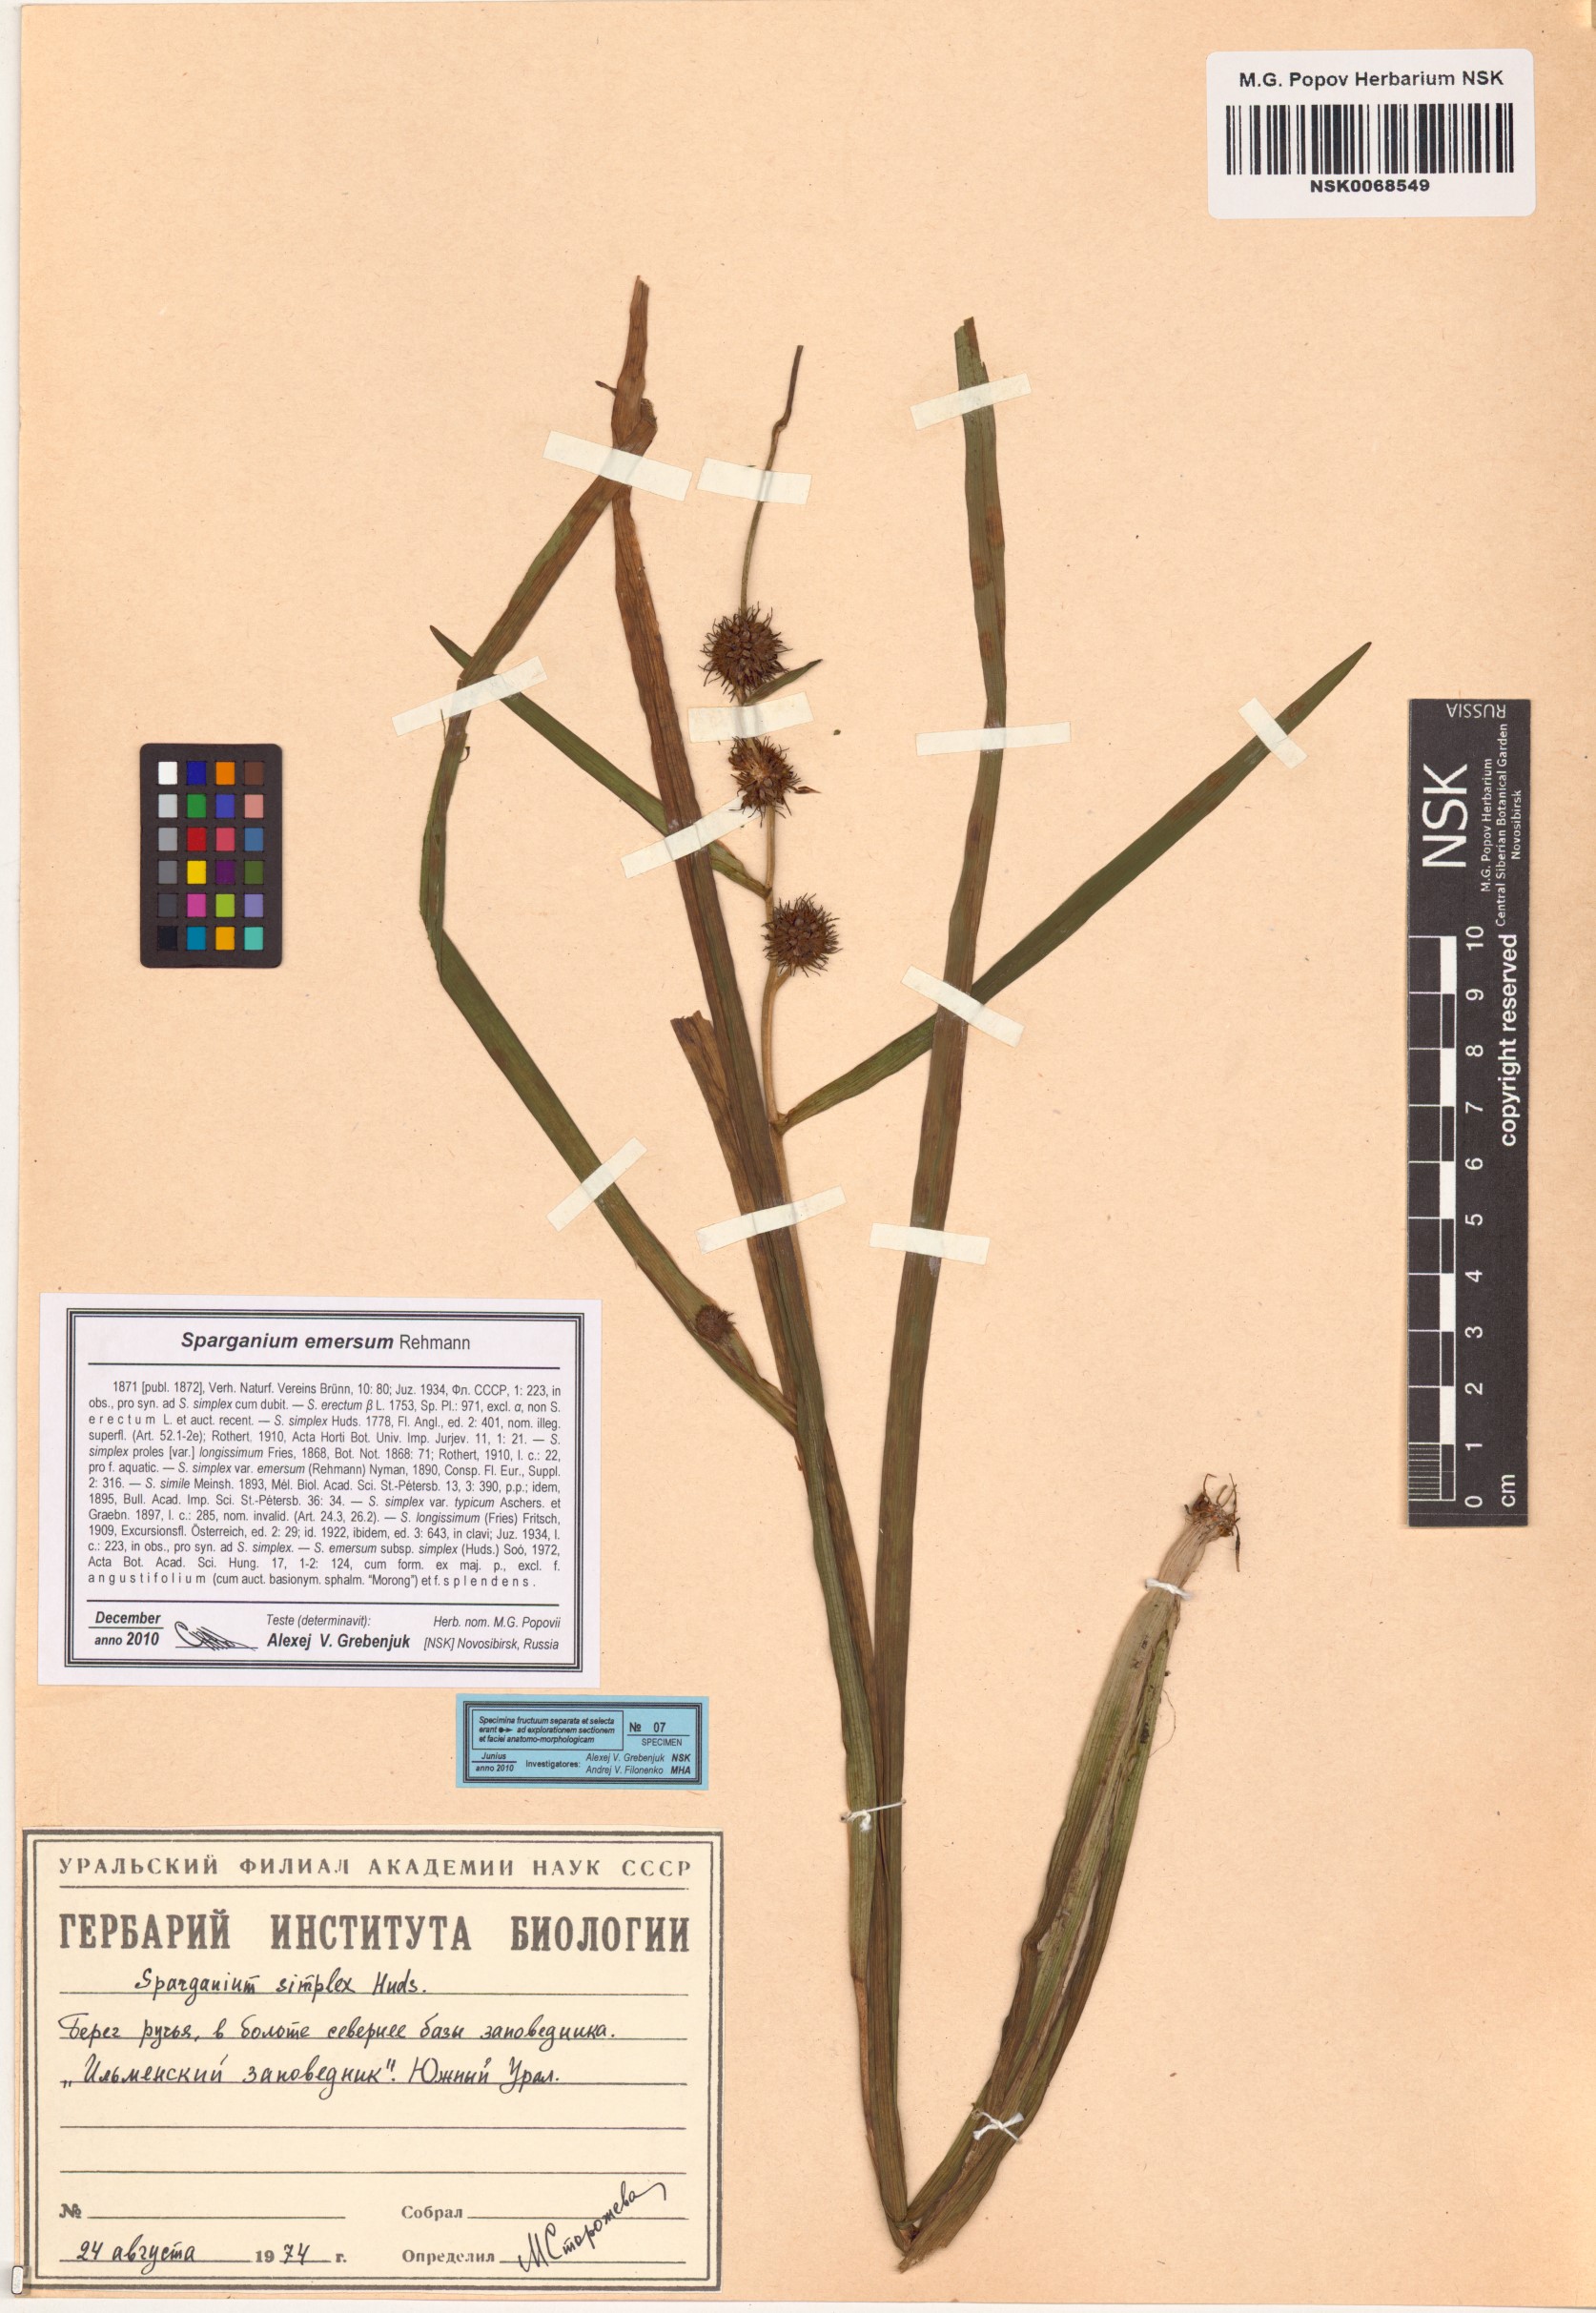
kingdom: Plantae
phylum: Tracheophyta
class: Liliopsida
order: Poales
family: Typhaceae
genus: Sparganium
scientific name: Sparganium emersum
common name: Unbranched bur-reed
